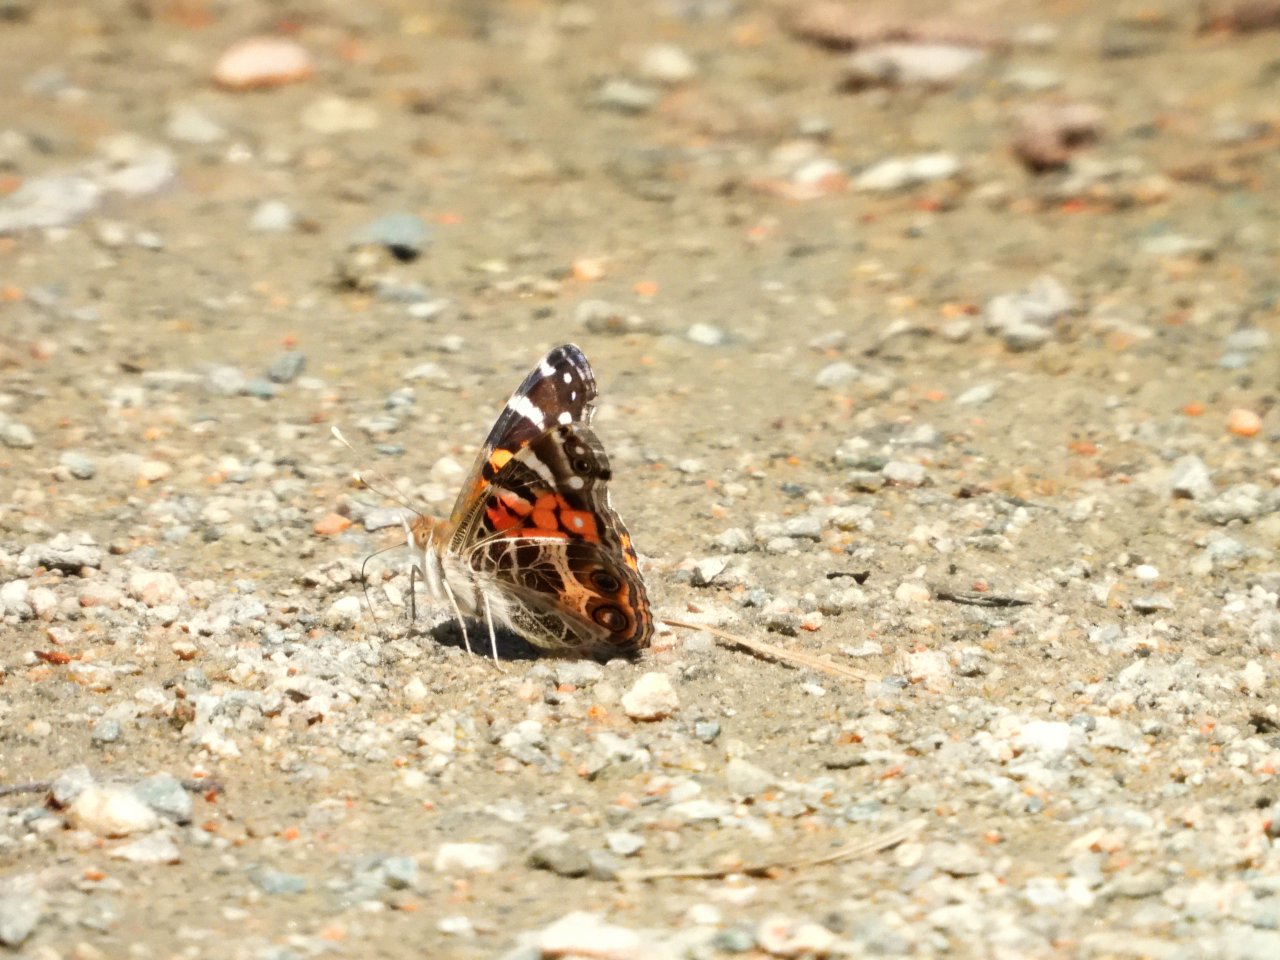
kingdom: Animalia
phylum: Arthropoda
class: Insecta
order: Lepidoptera
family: Nymphalidae
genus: Vanessa
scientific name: Vanessa virginiensis
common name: American Lady
